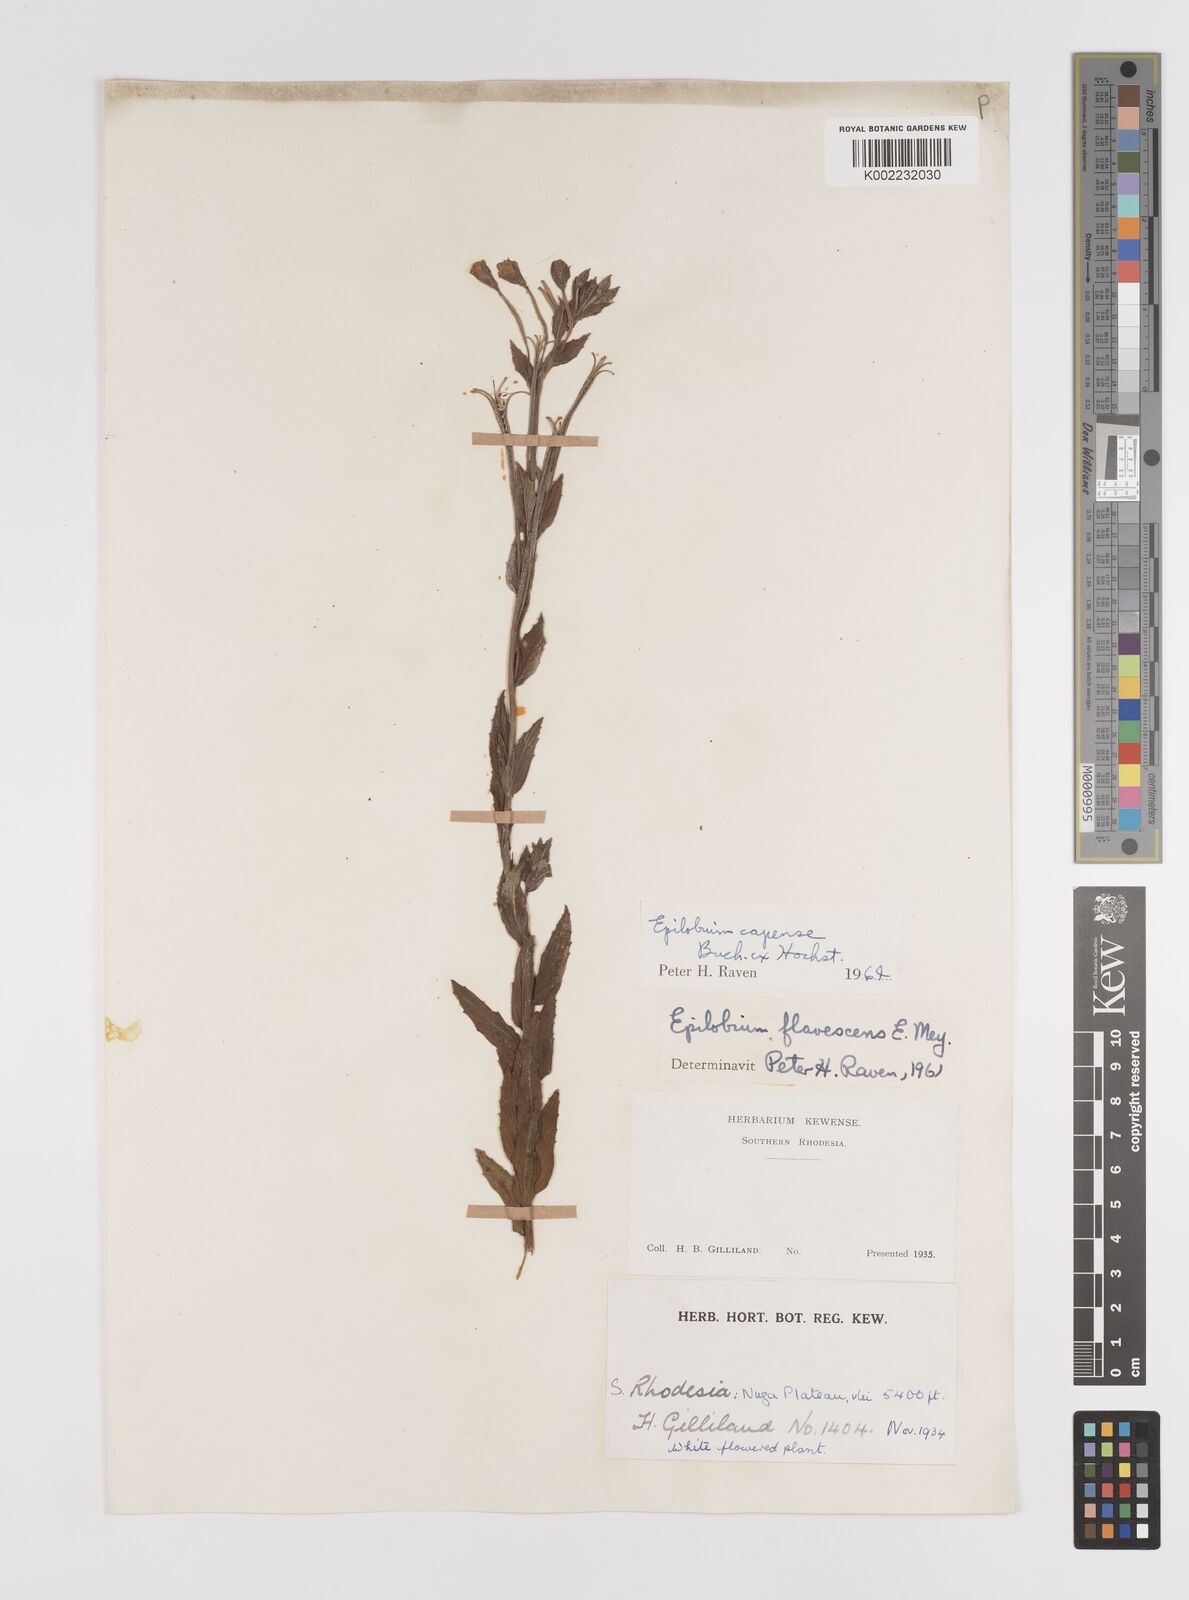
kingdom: Plantae
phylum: Tracheophyta
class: Magnoliopsida
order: Myrtales
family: Onagraceae
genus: Epilobium
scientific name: Epilobium capense
